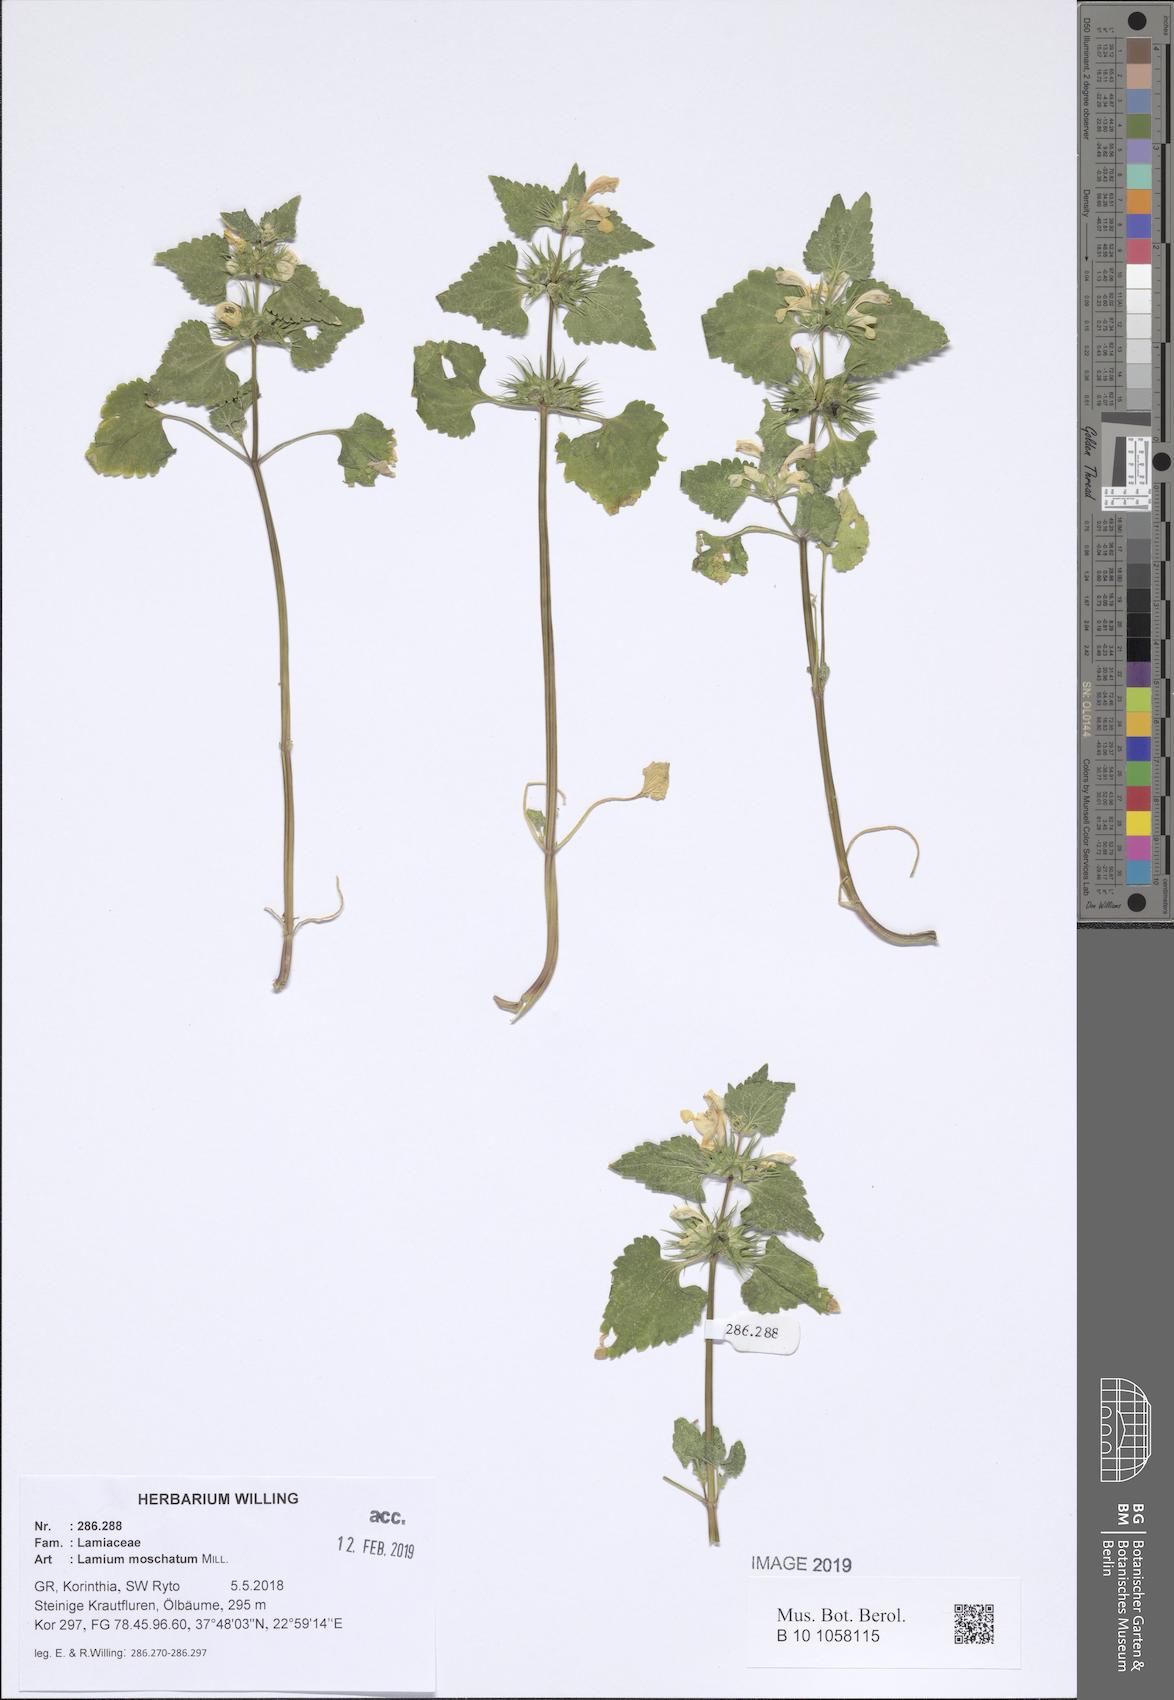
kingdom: Plantae
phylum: Tracheophyta
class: Magnoliopsida
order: Lamiales
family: Lamiaceae
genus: Lamium
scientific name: Lamium moschatum
